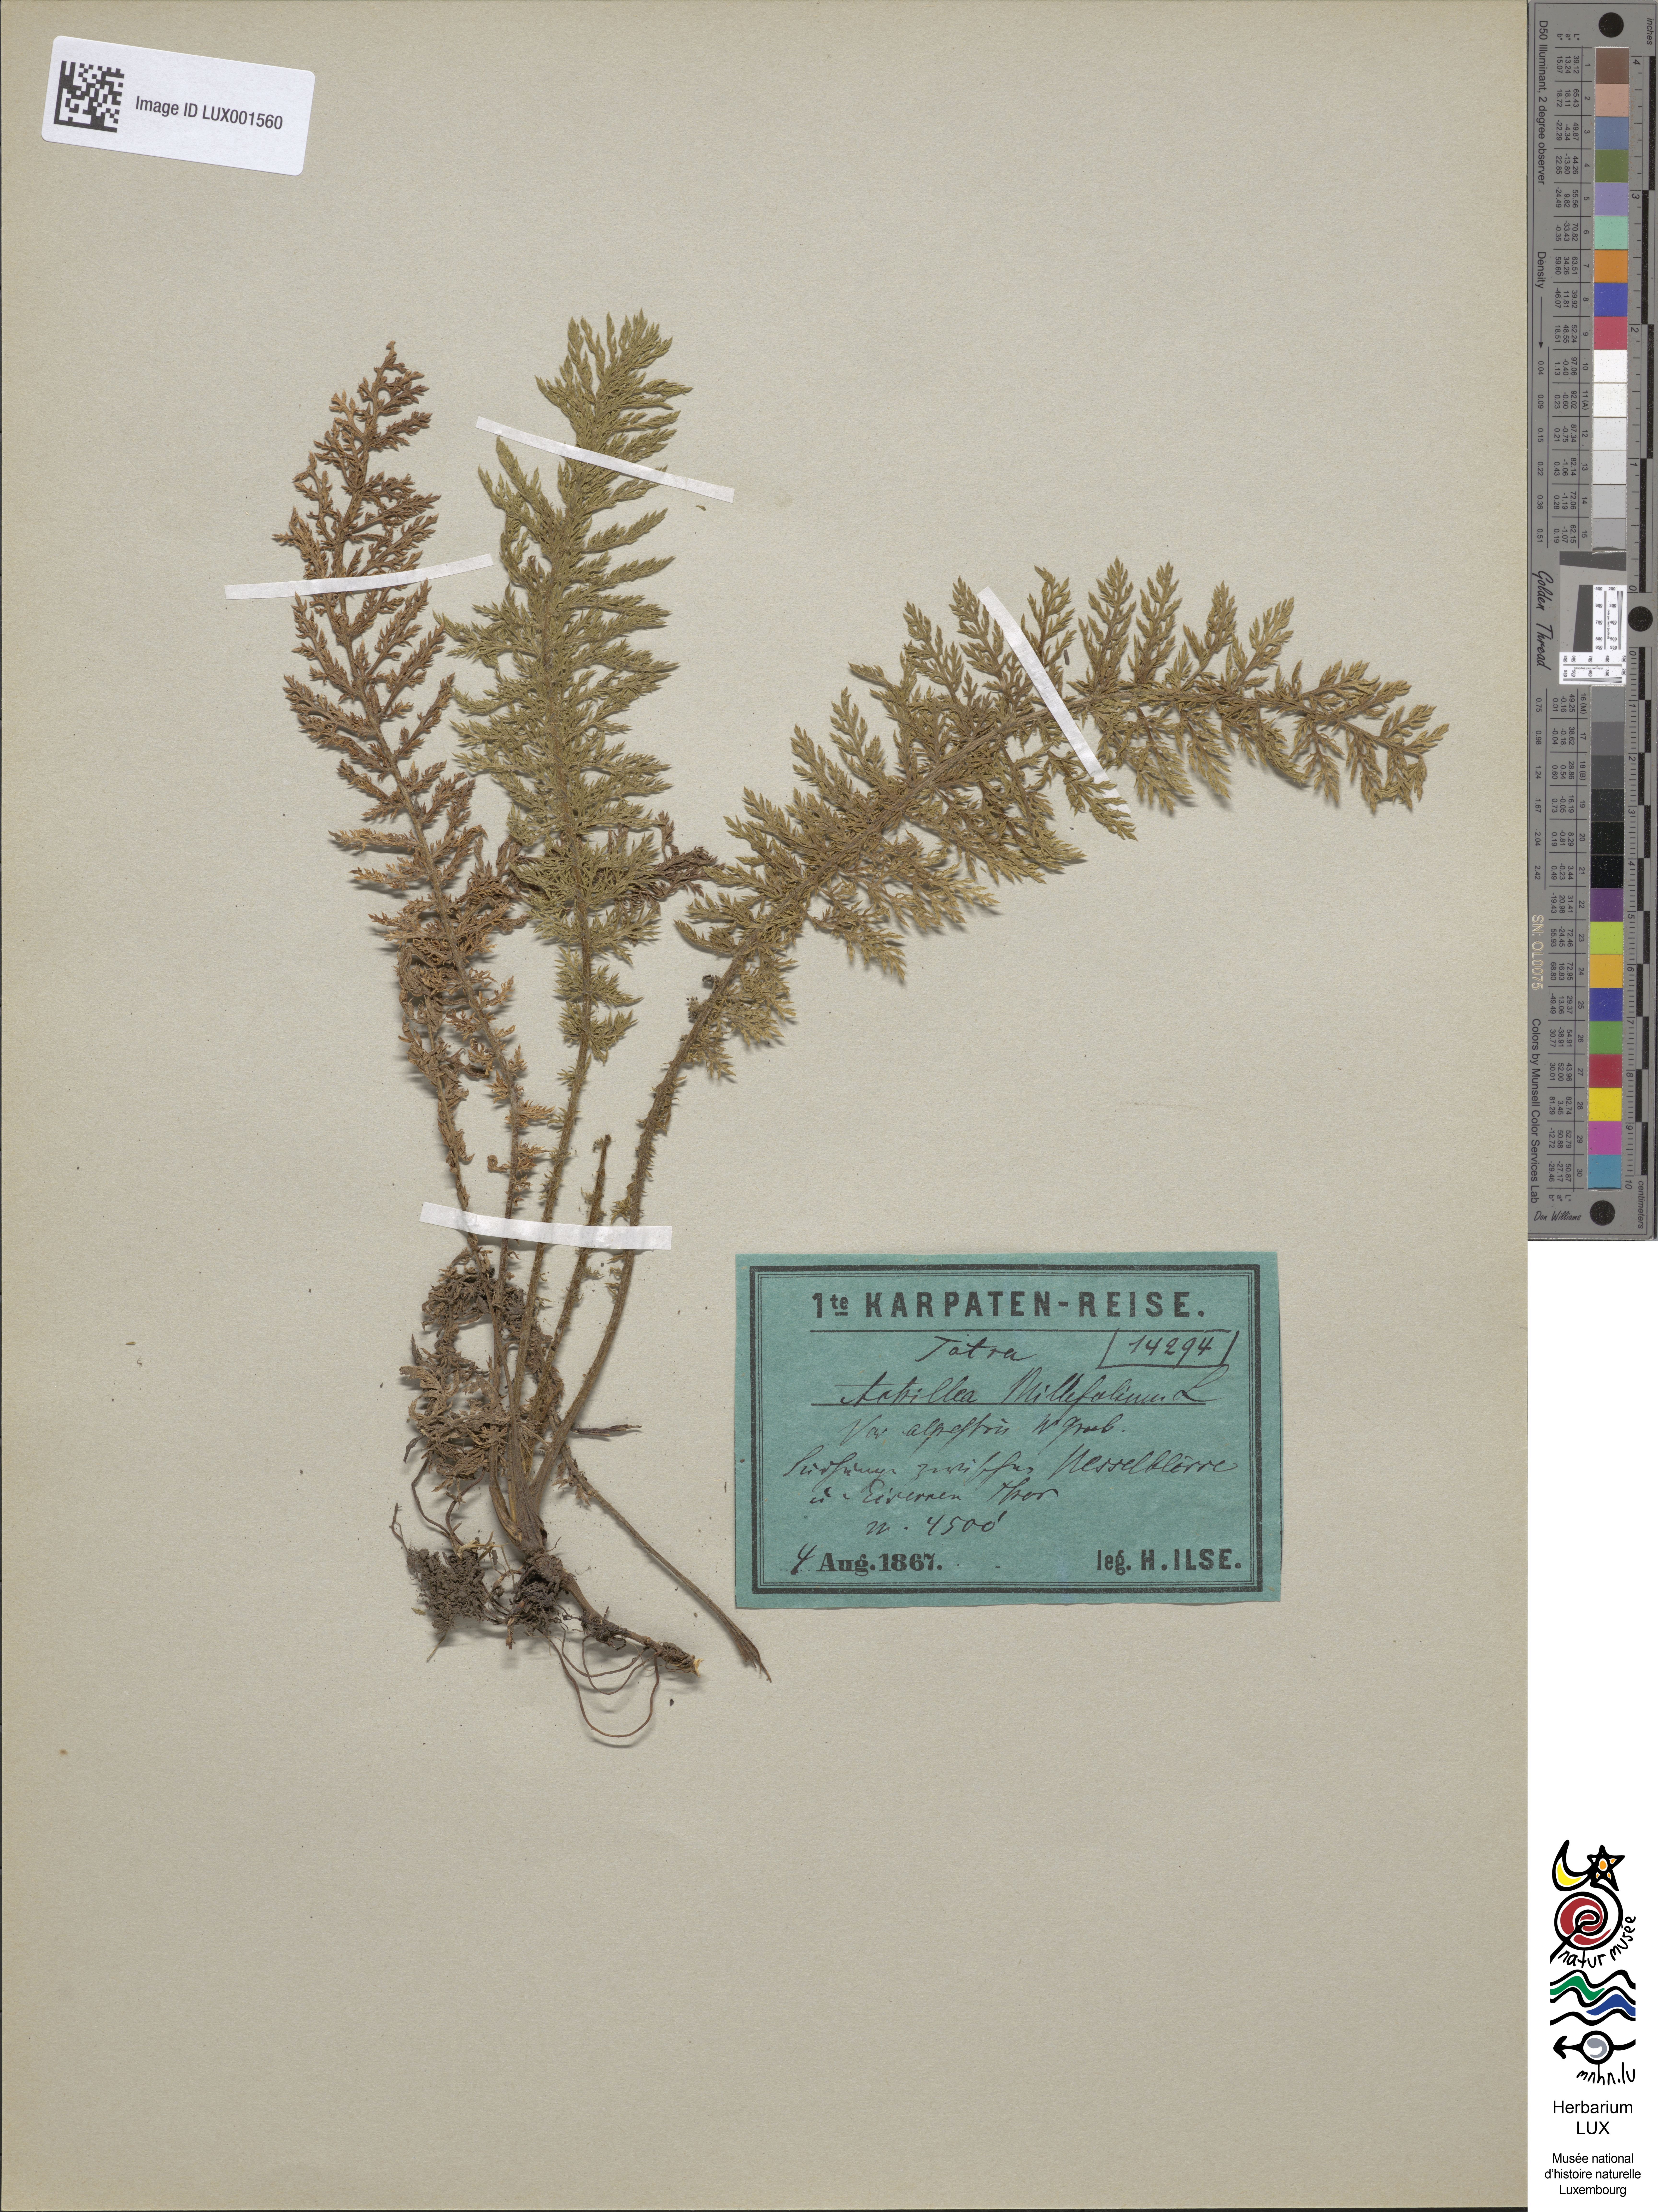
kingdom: Plantae
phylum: Tracheophyta
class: Magnoliopsida
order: Asterales
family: Asteraceae
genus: Achillea
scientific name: Achillea millefolium
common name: Yarrow
